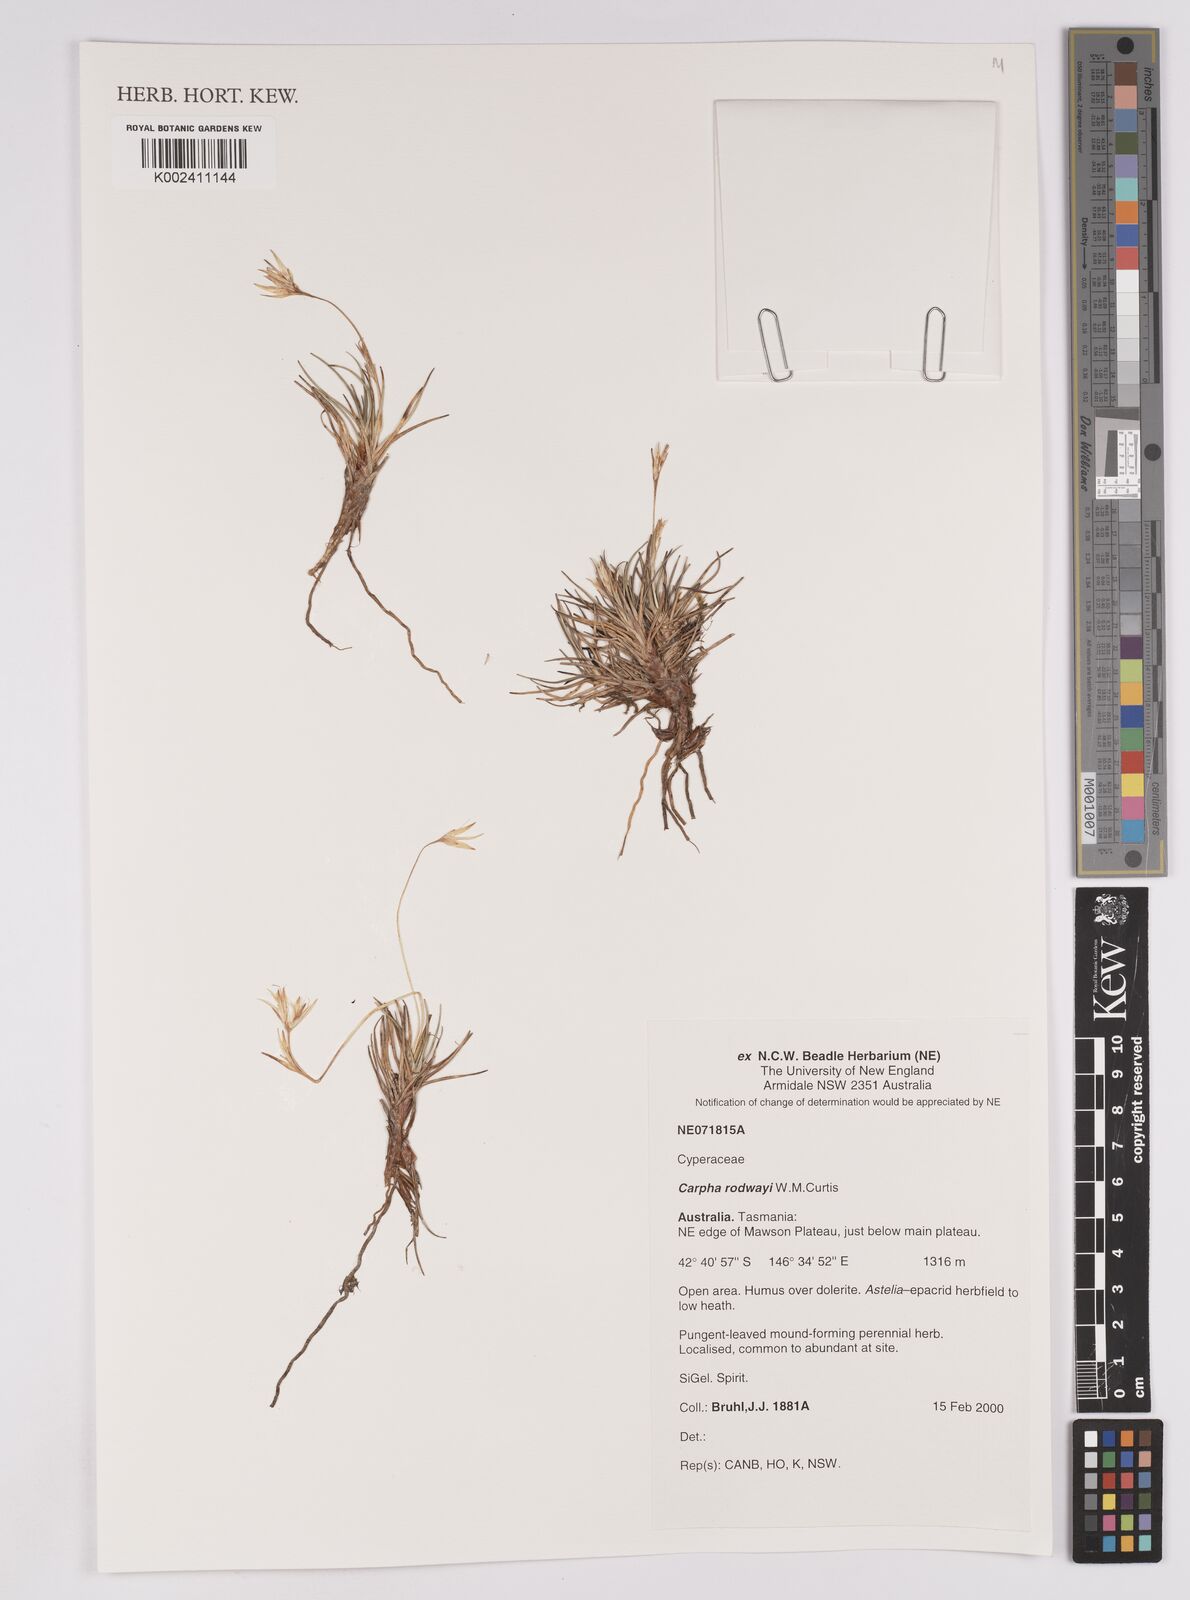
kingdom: Plantae
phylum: Tracheophyta
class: Liliopsida
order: Poales
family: Cyperaceae
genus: Carpha
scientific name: Carpha rodwayi
